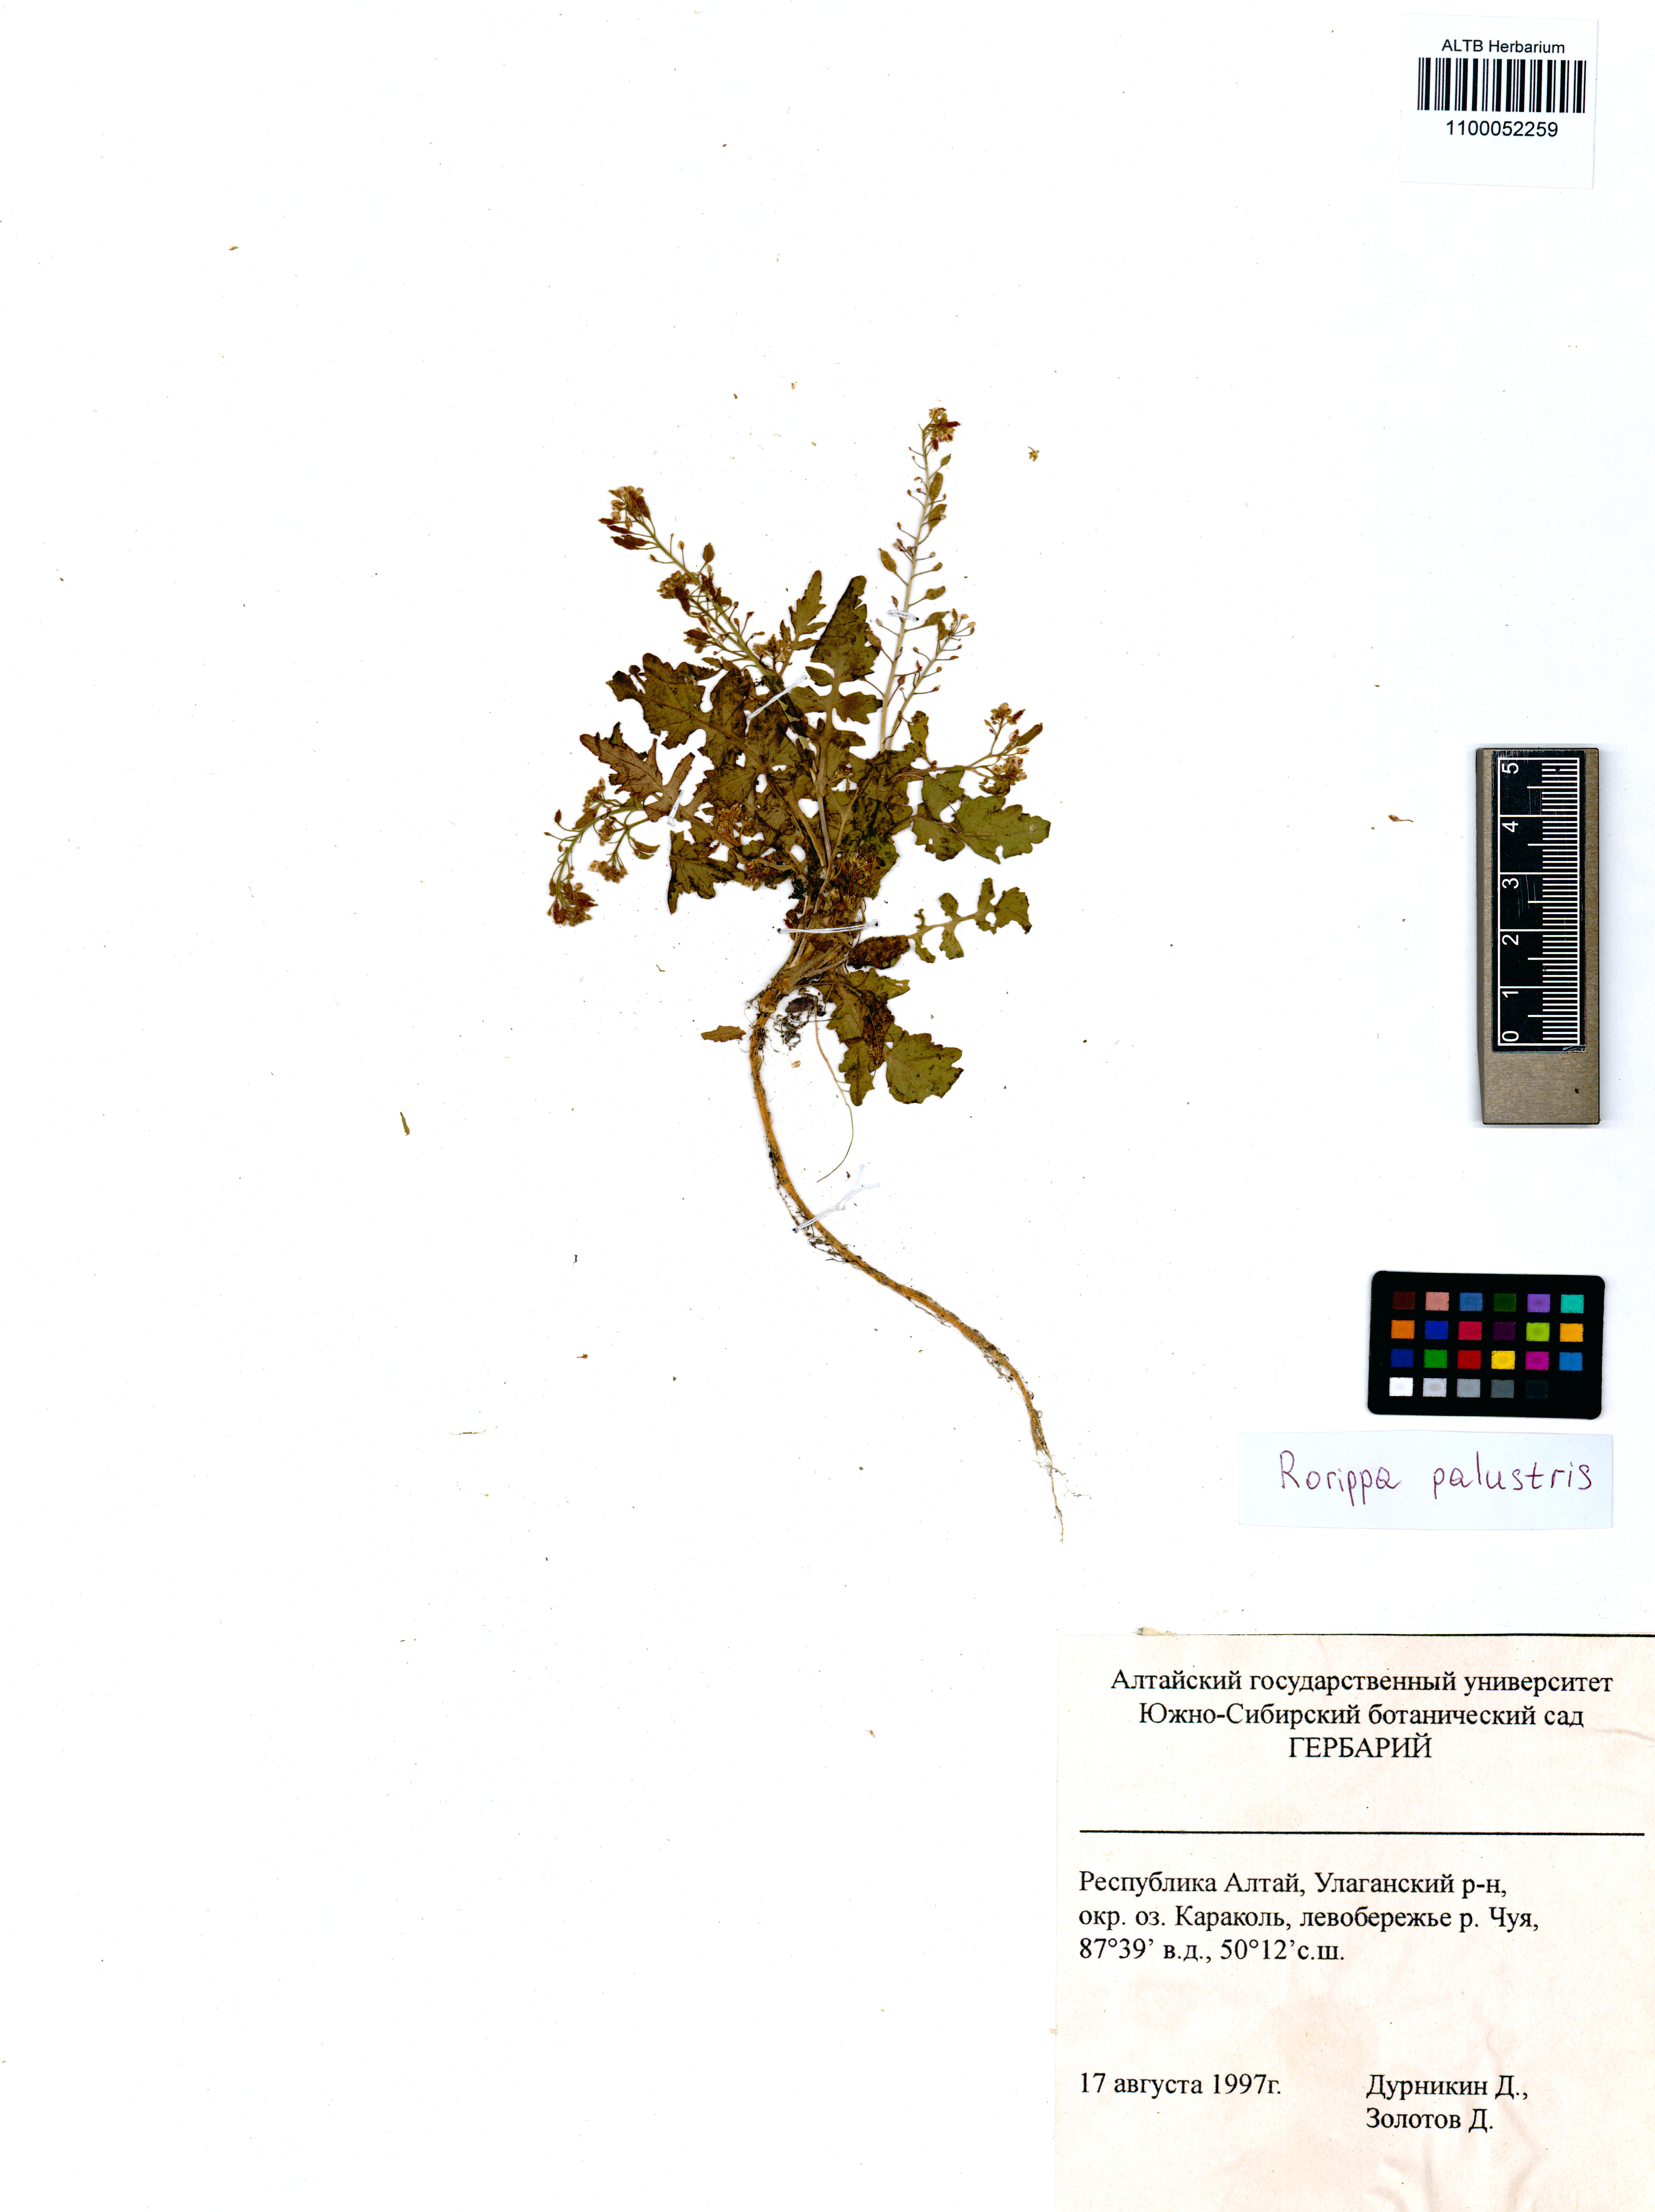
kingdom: Plantae
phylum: Tracheophyta
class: Magnoliopsida
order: Brassicales
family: Brassicaceae
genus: Rorippa
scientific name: Rorippa palustris
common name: Marsh yellow-cress
